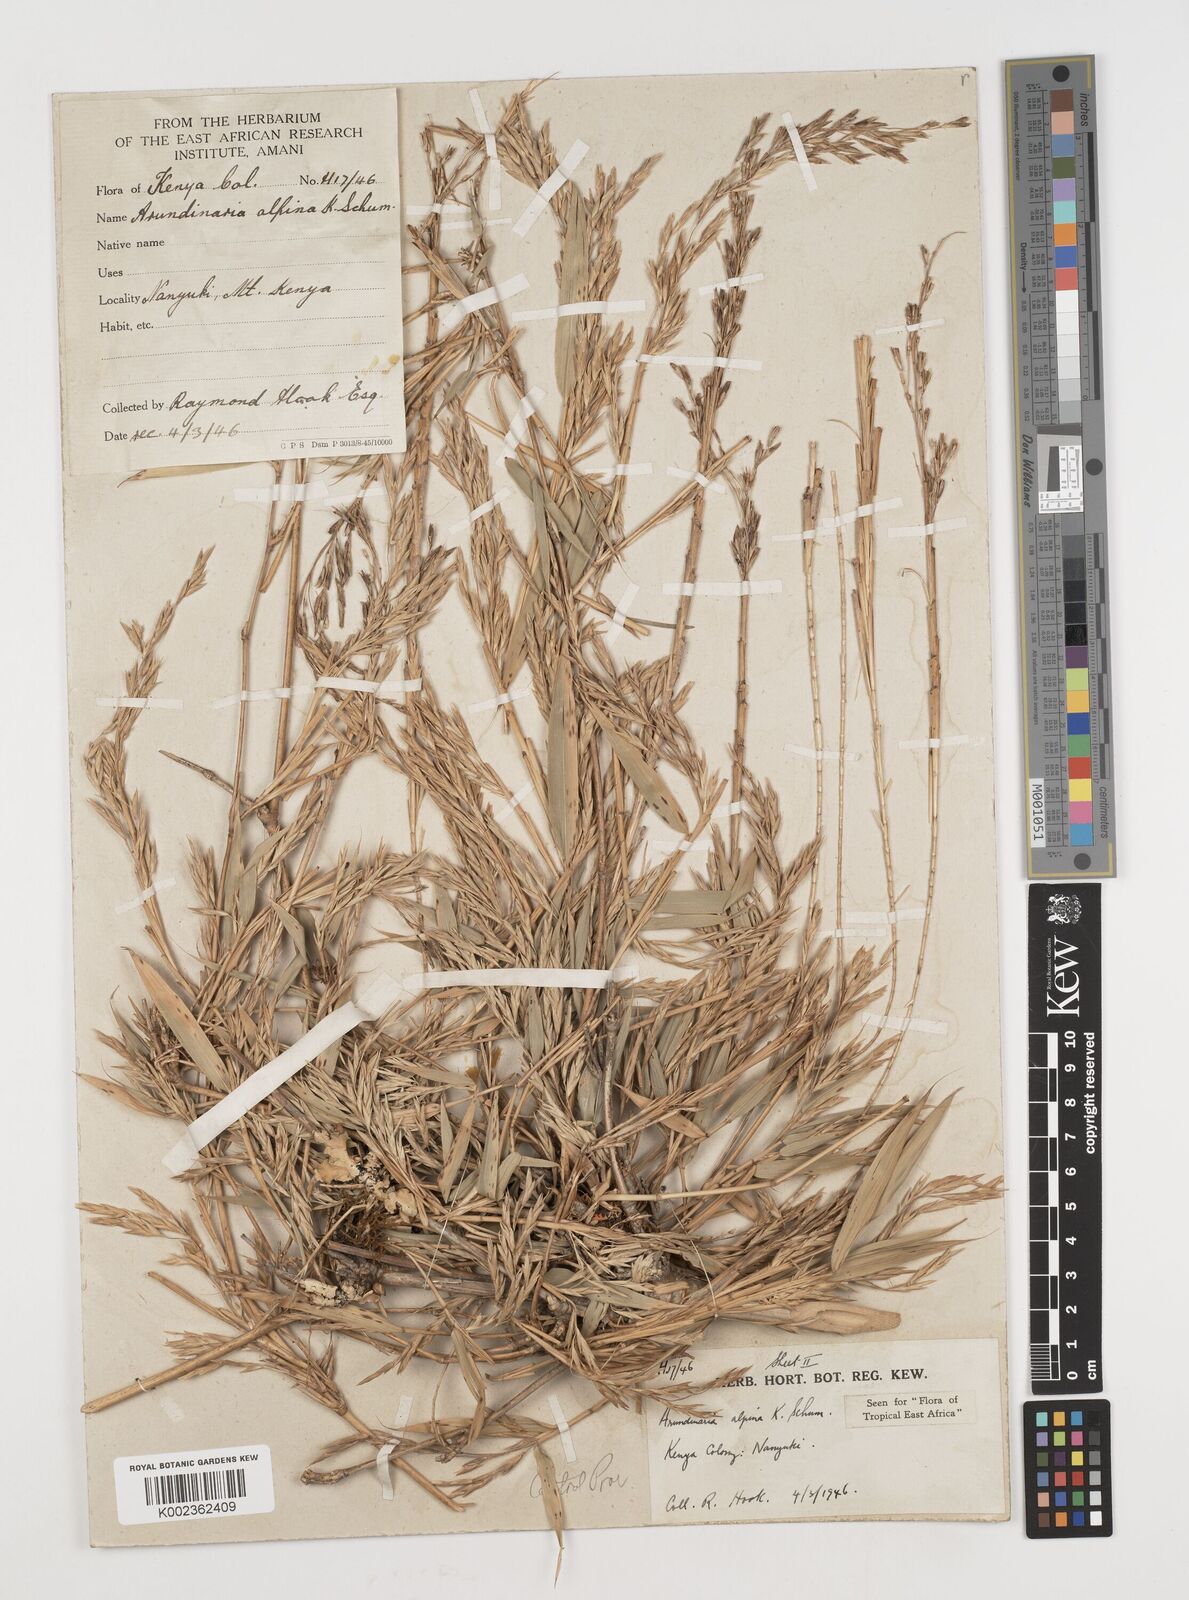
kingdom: Plantae
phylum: Tracheophyta
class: Liliopsida
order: Poales
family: Poaceae
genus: Oldeania
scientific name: Oldeania alpina
